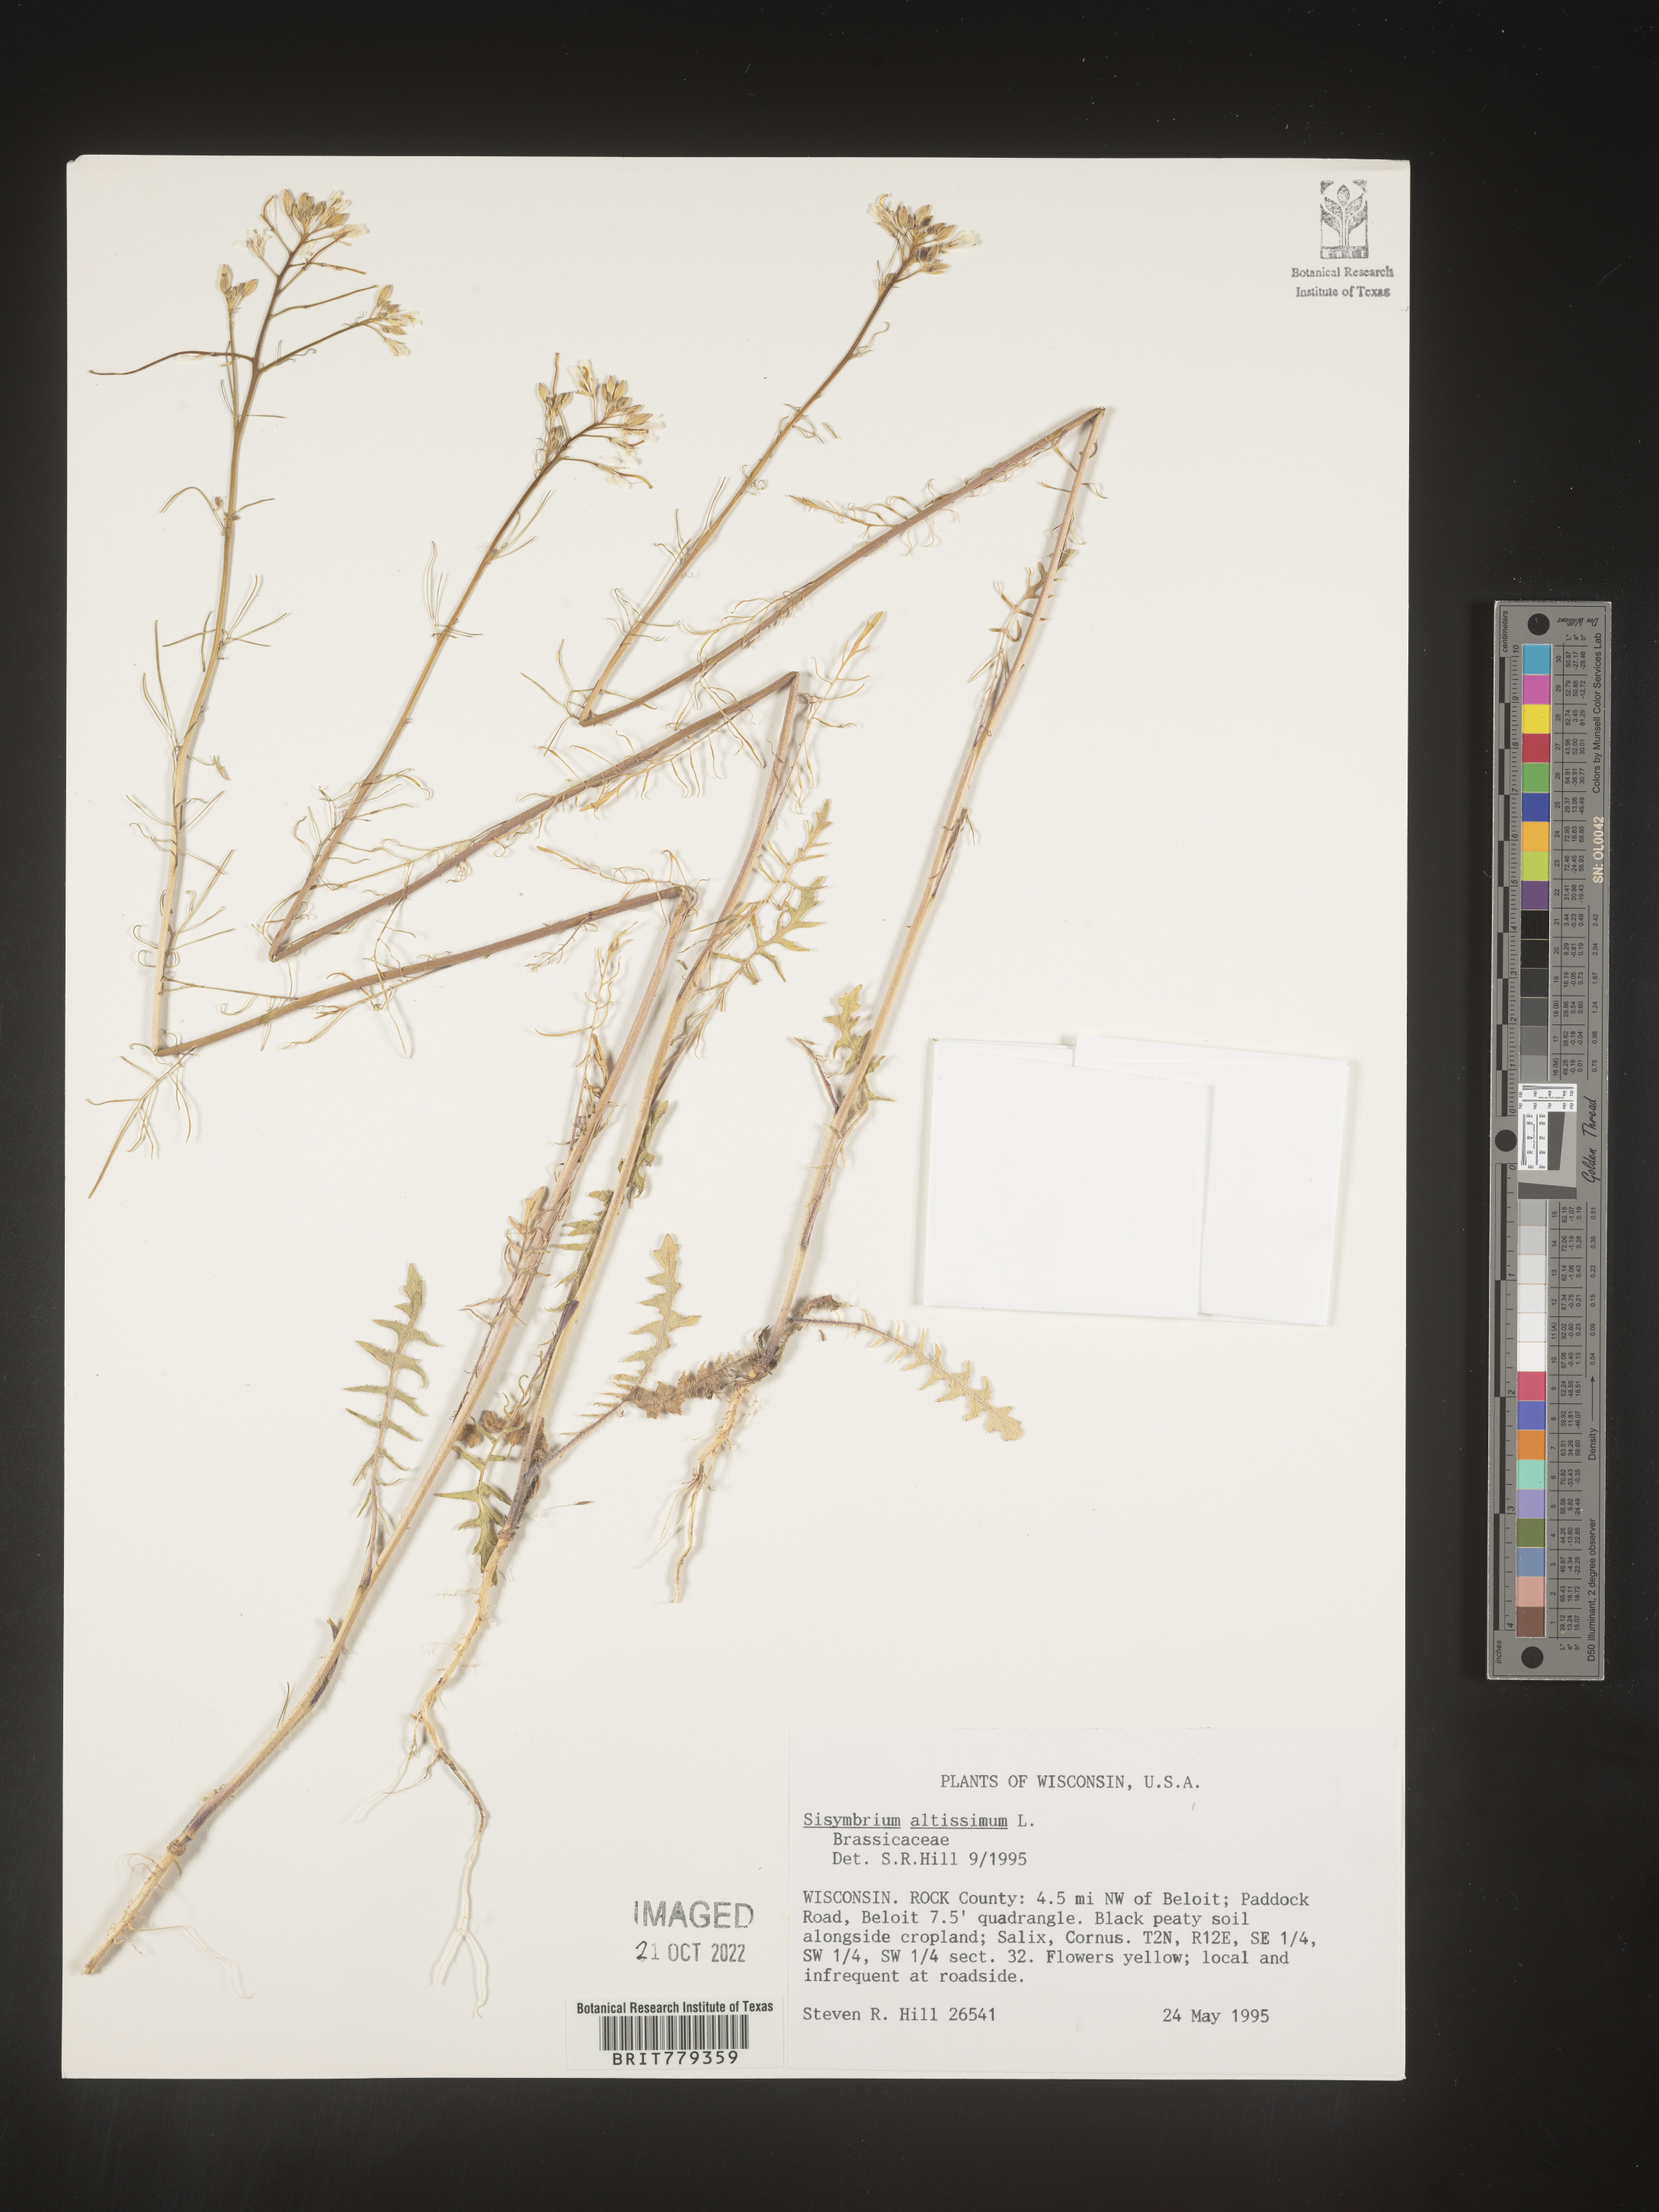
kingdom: Plantae
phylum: Tracheophyta
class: Magnoliopsida
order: Brassicales
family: Brassicaceae
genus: Sisymbrium
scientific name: Sisymbrium altissimum
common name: Tall rocket
